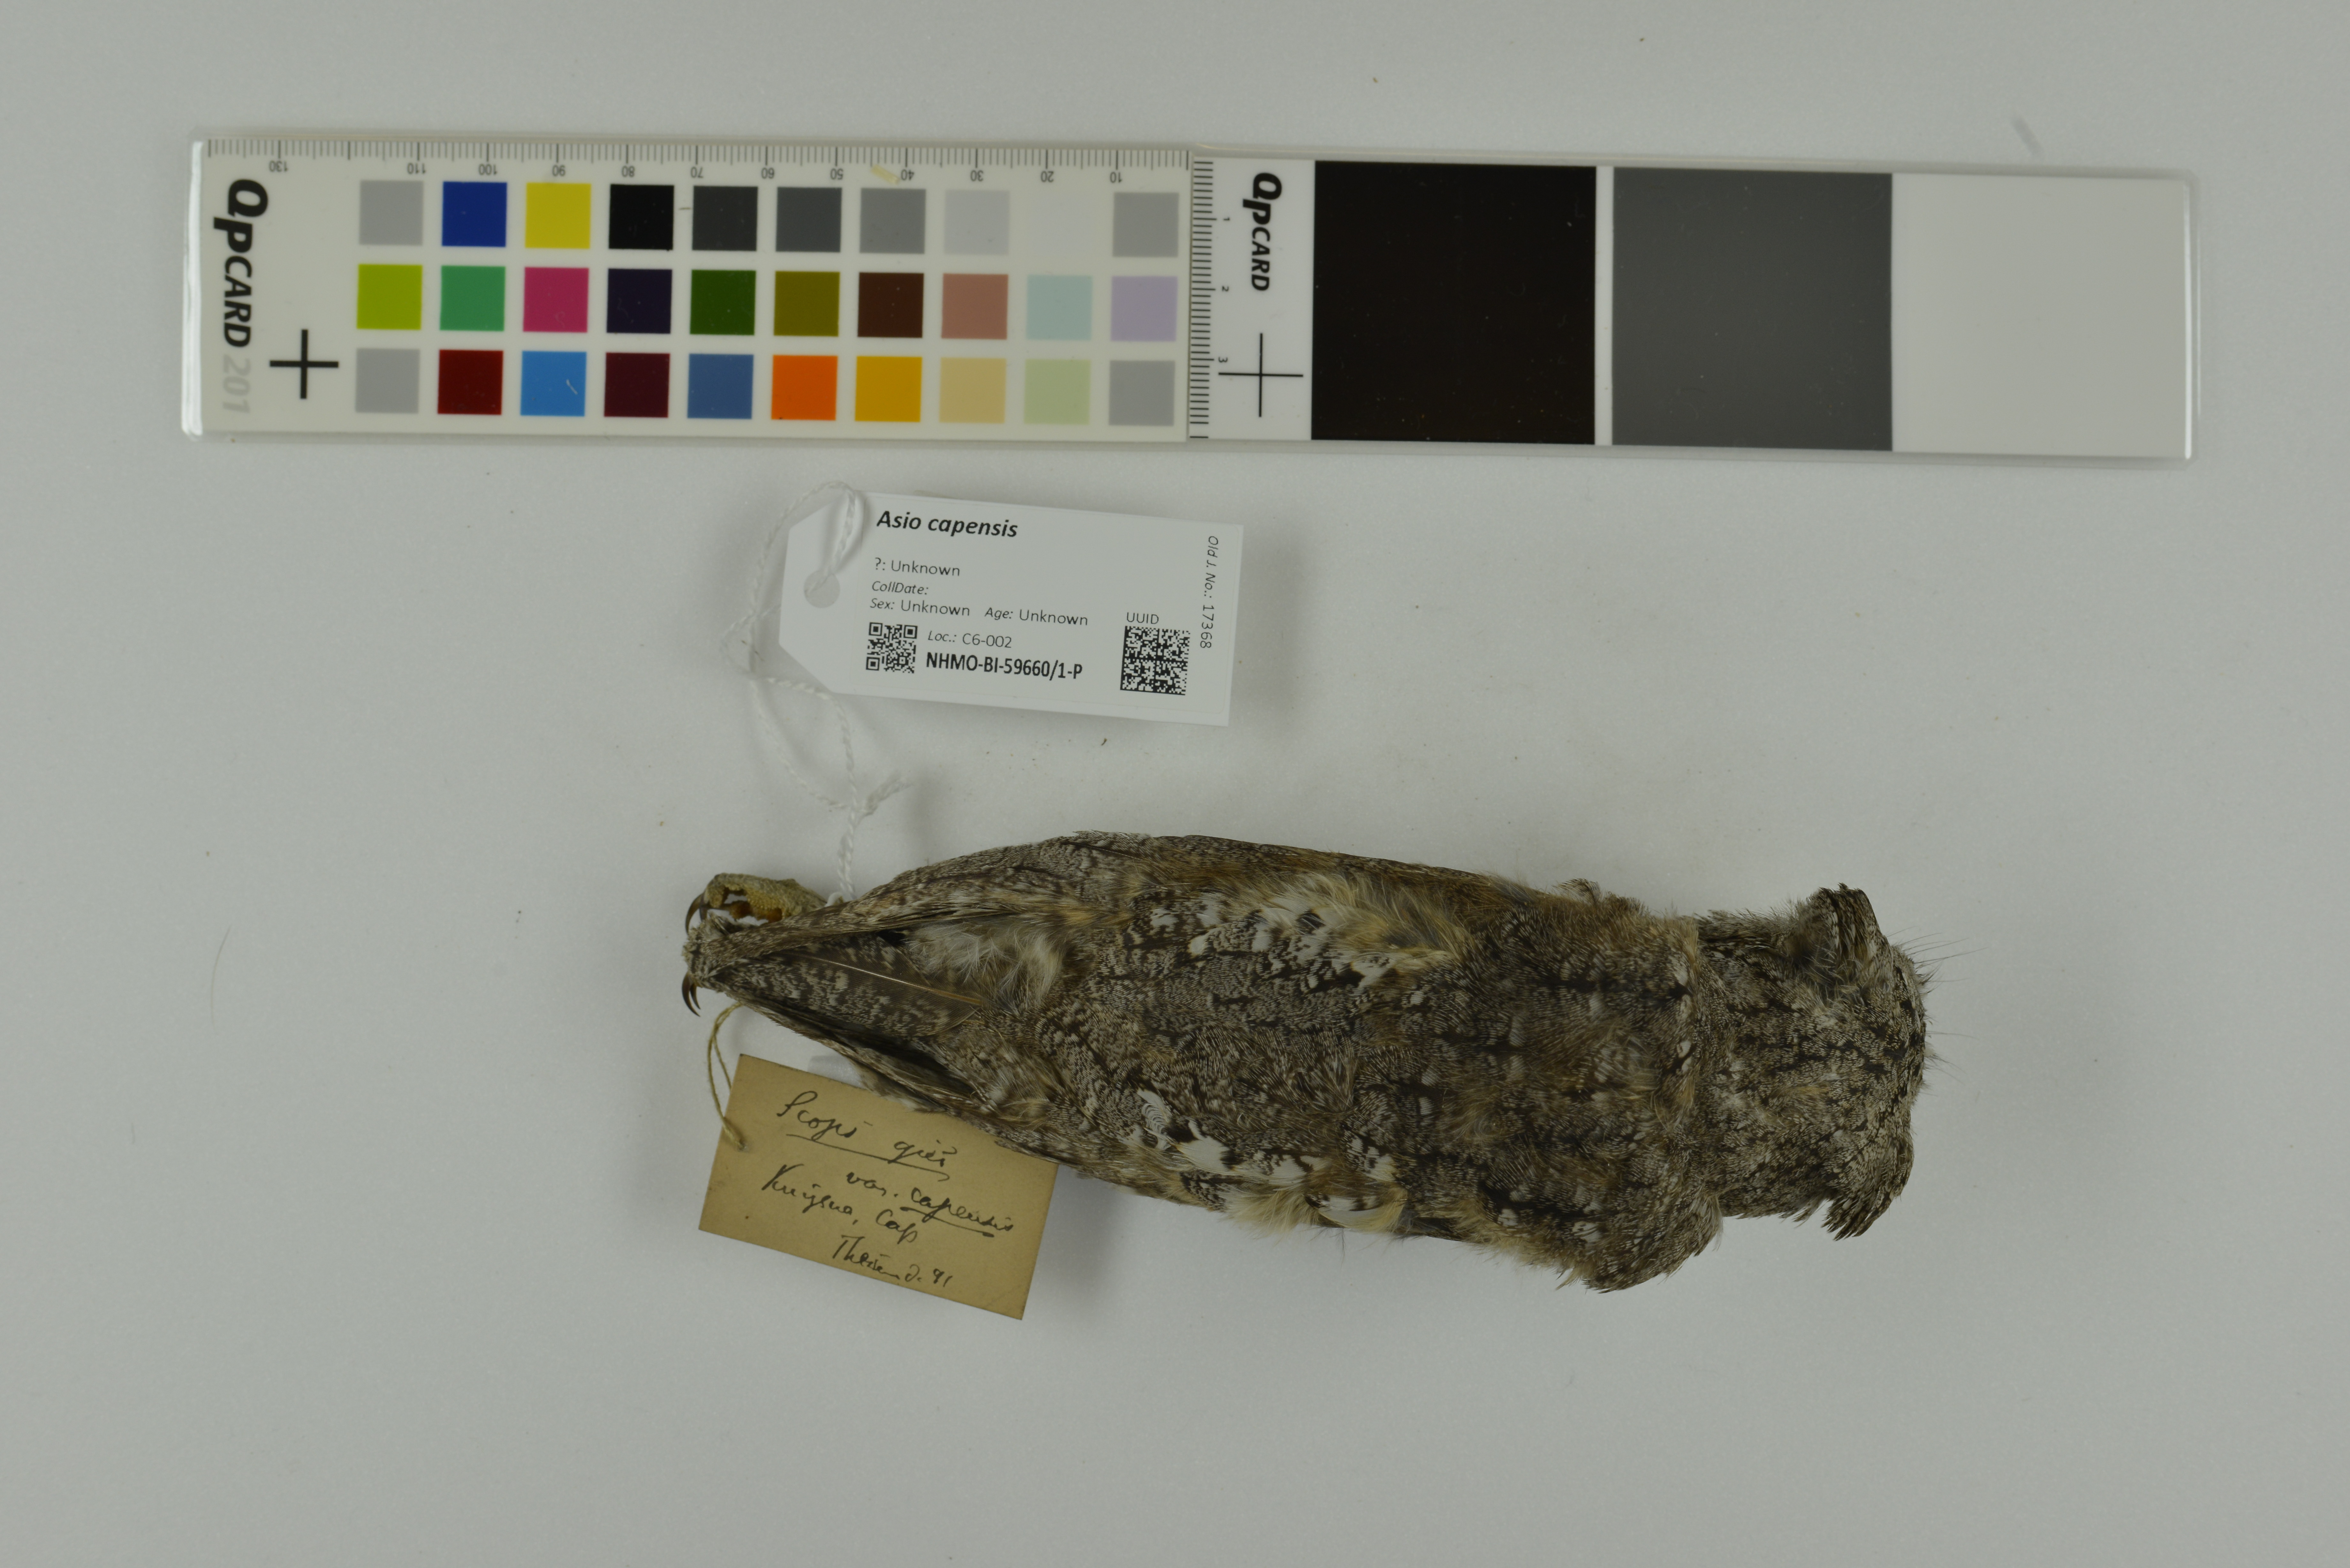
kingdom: Animalia
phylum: Chordata
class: Aves
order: Strigiformes
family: Strigidae
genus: Asio
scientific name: Asio capensis
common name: Marsh owl
